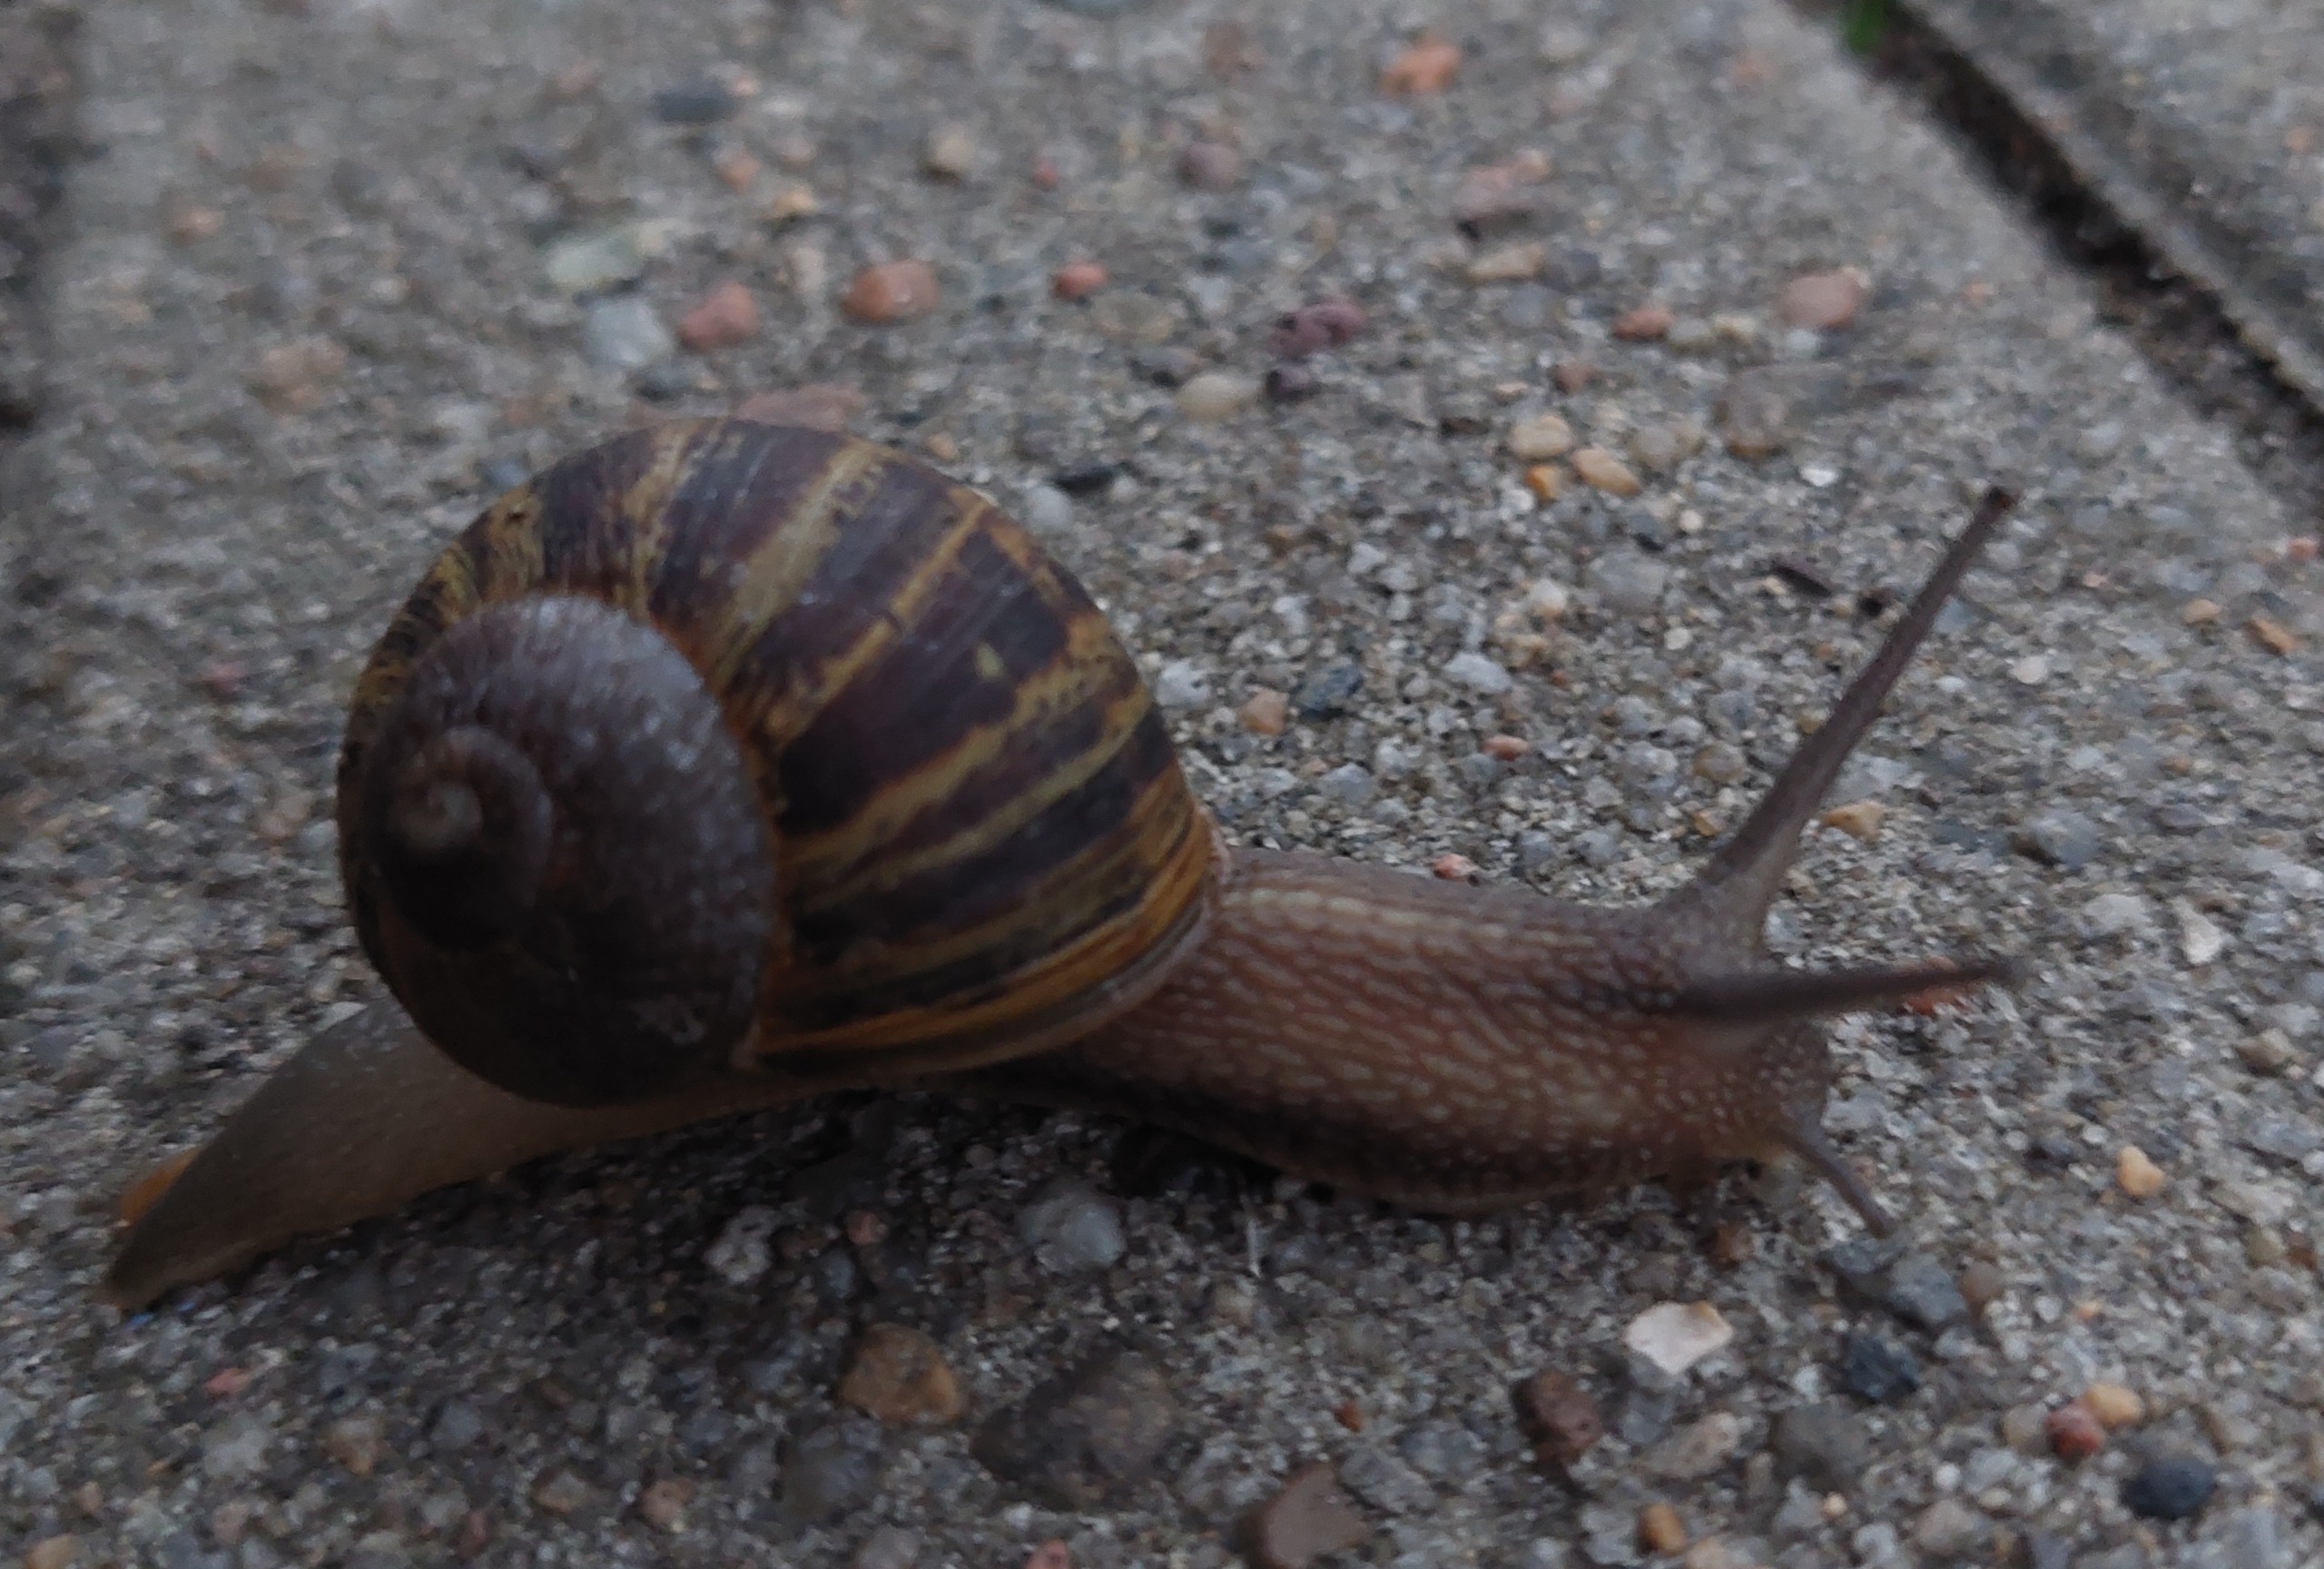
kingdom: Animalia
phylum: Mollusca
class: Gastropoda
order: Stylommatophora
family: Helicidae
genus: Cornu
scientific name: Cornu aspersum
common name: Plettet voldsnegl
